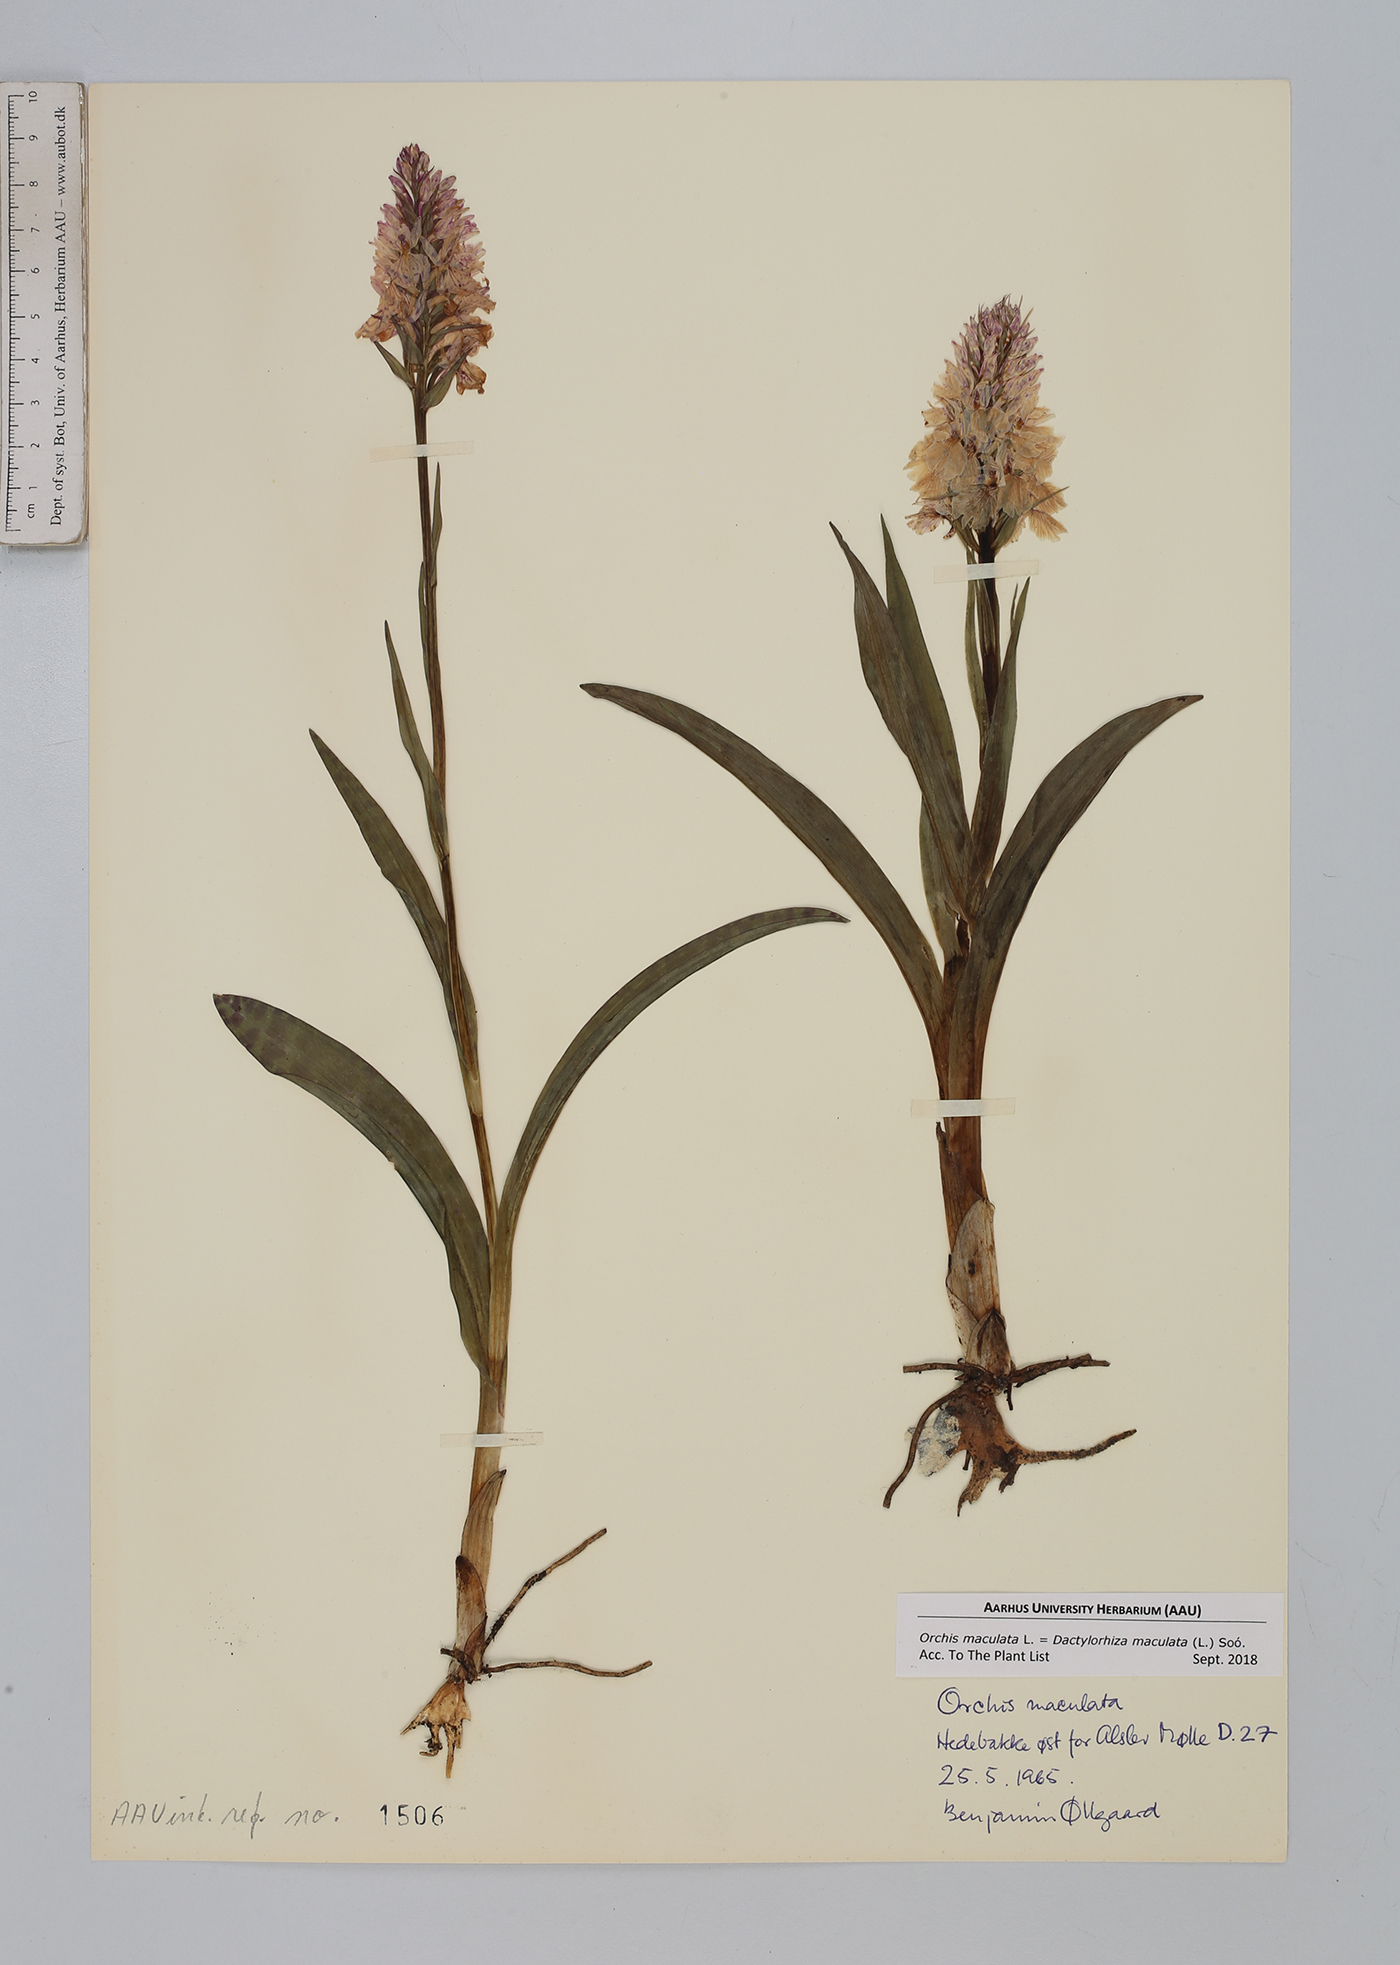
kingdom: Plantae
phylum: Tracheophyta
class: Liliopsida
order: Asparagales
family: Orchidaceae
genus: Dactylorhiza
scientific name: Dactylorhiza maculata
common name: Heath spotted-orchid
